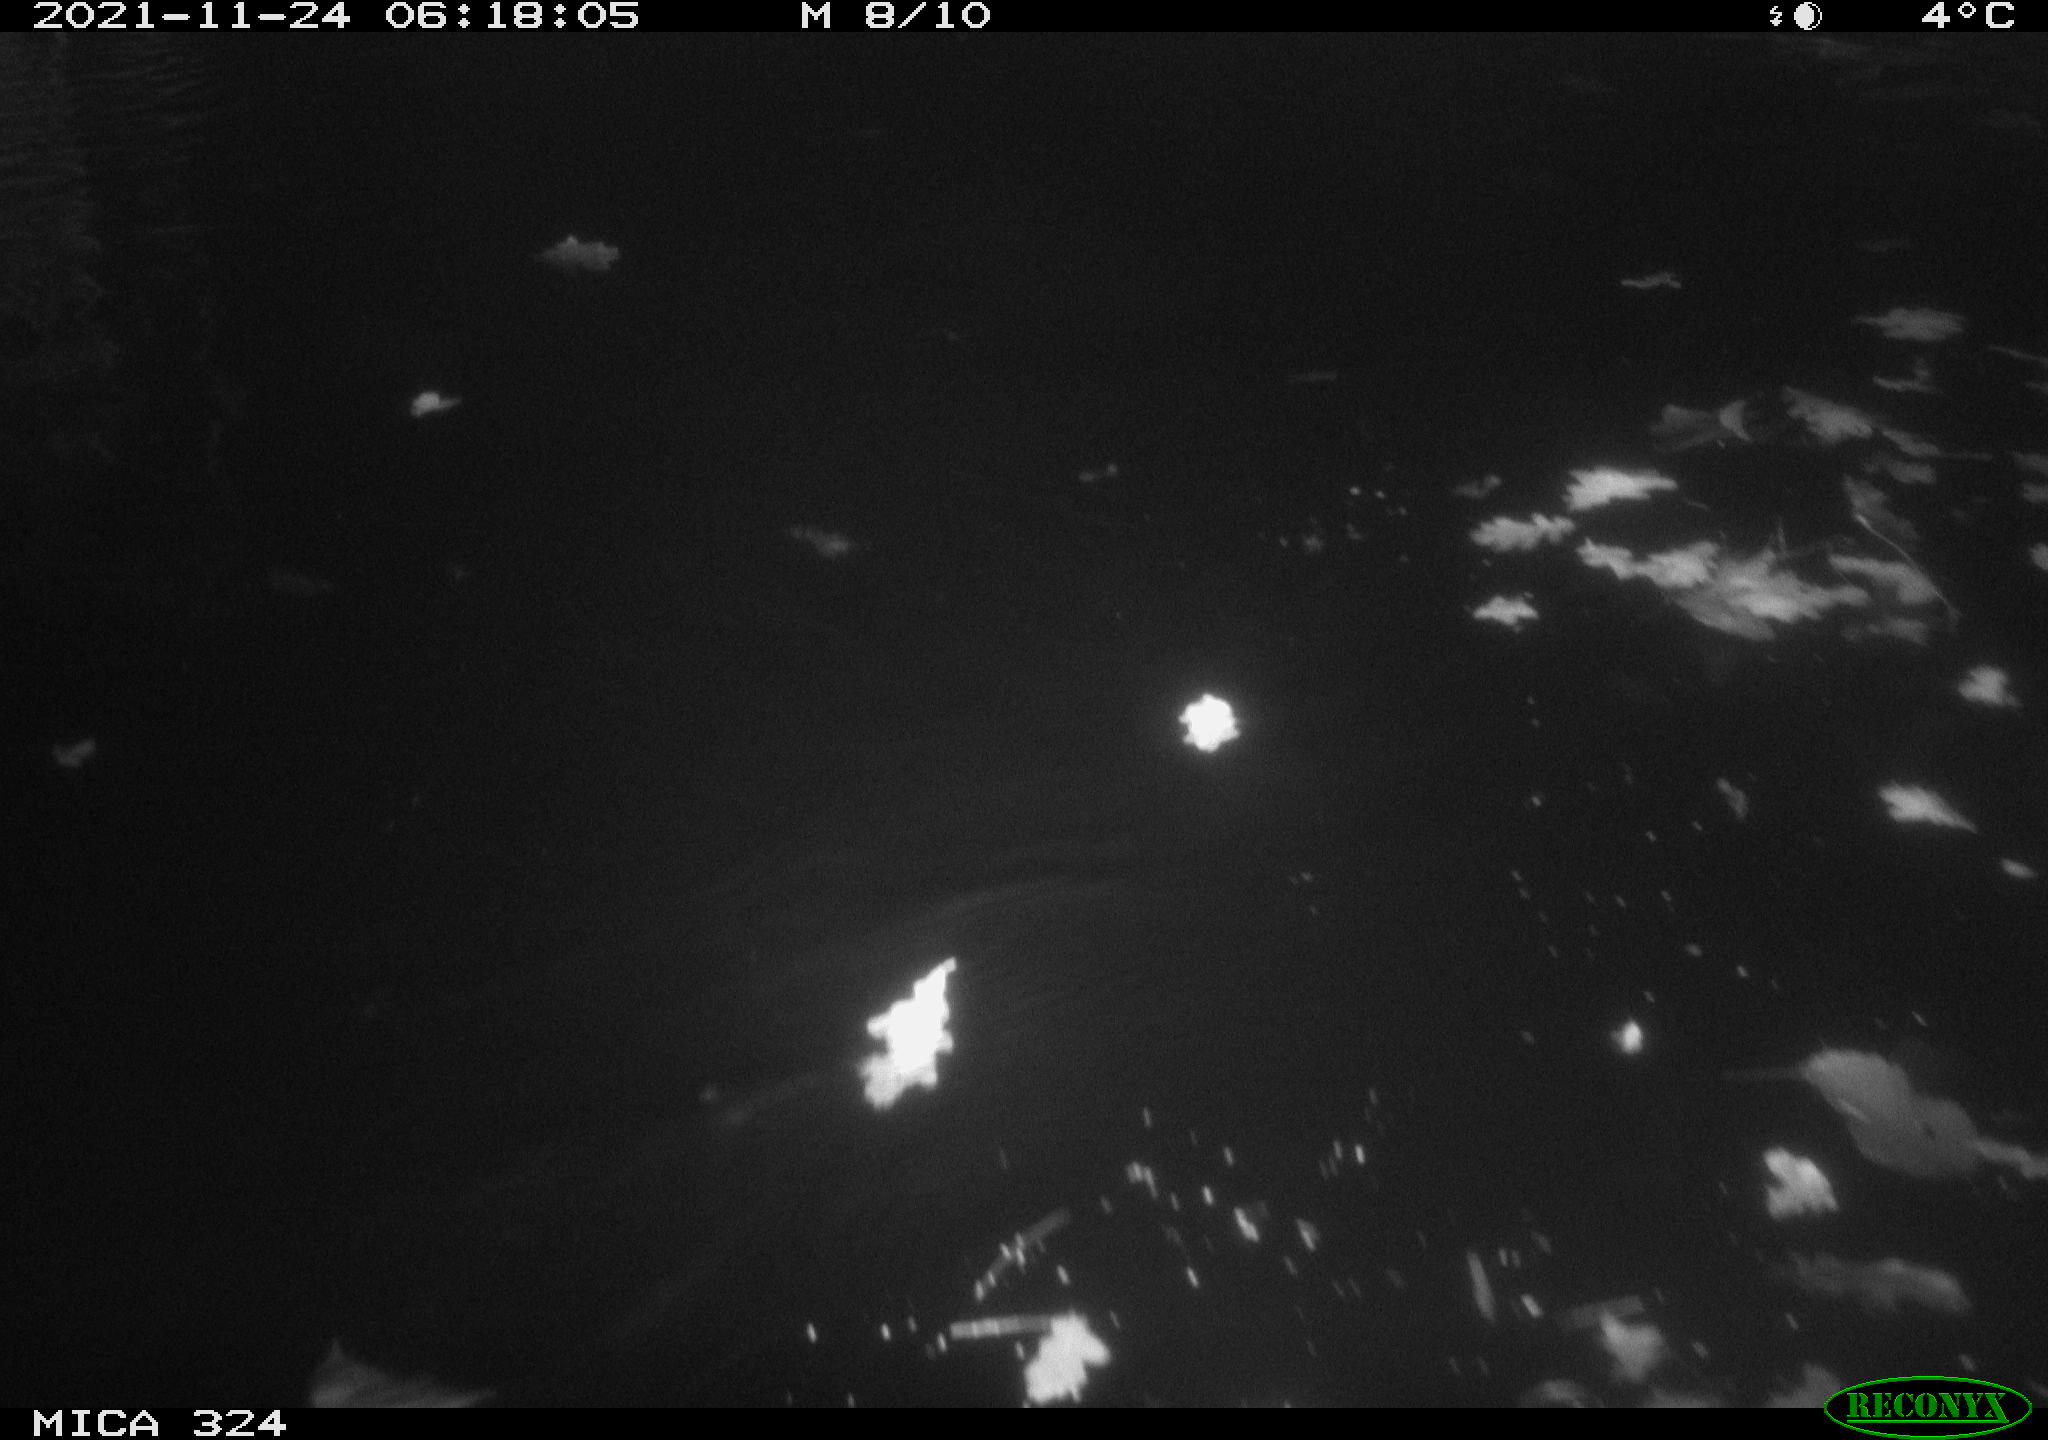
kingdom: Animalia
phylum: Chordata
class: Mammalia
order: Rodentia
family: Cricetidae
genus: Ondatra
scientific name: Ondatra zibethicus
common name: Muskrat
